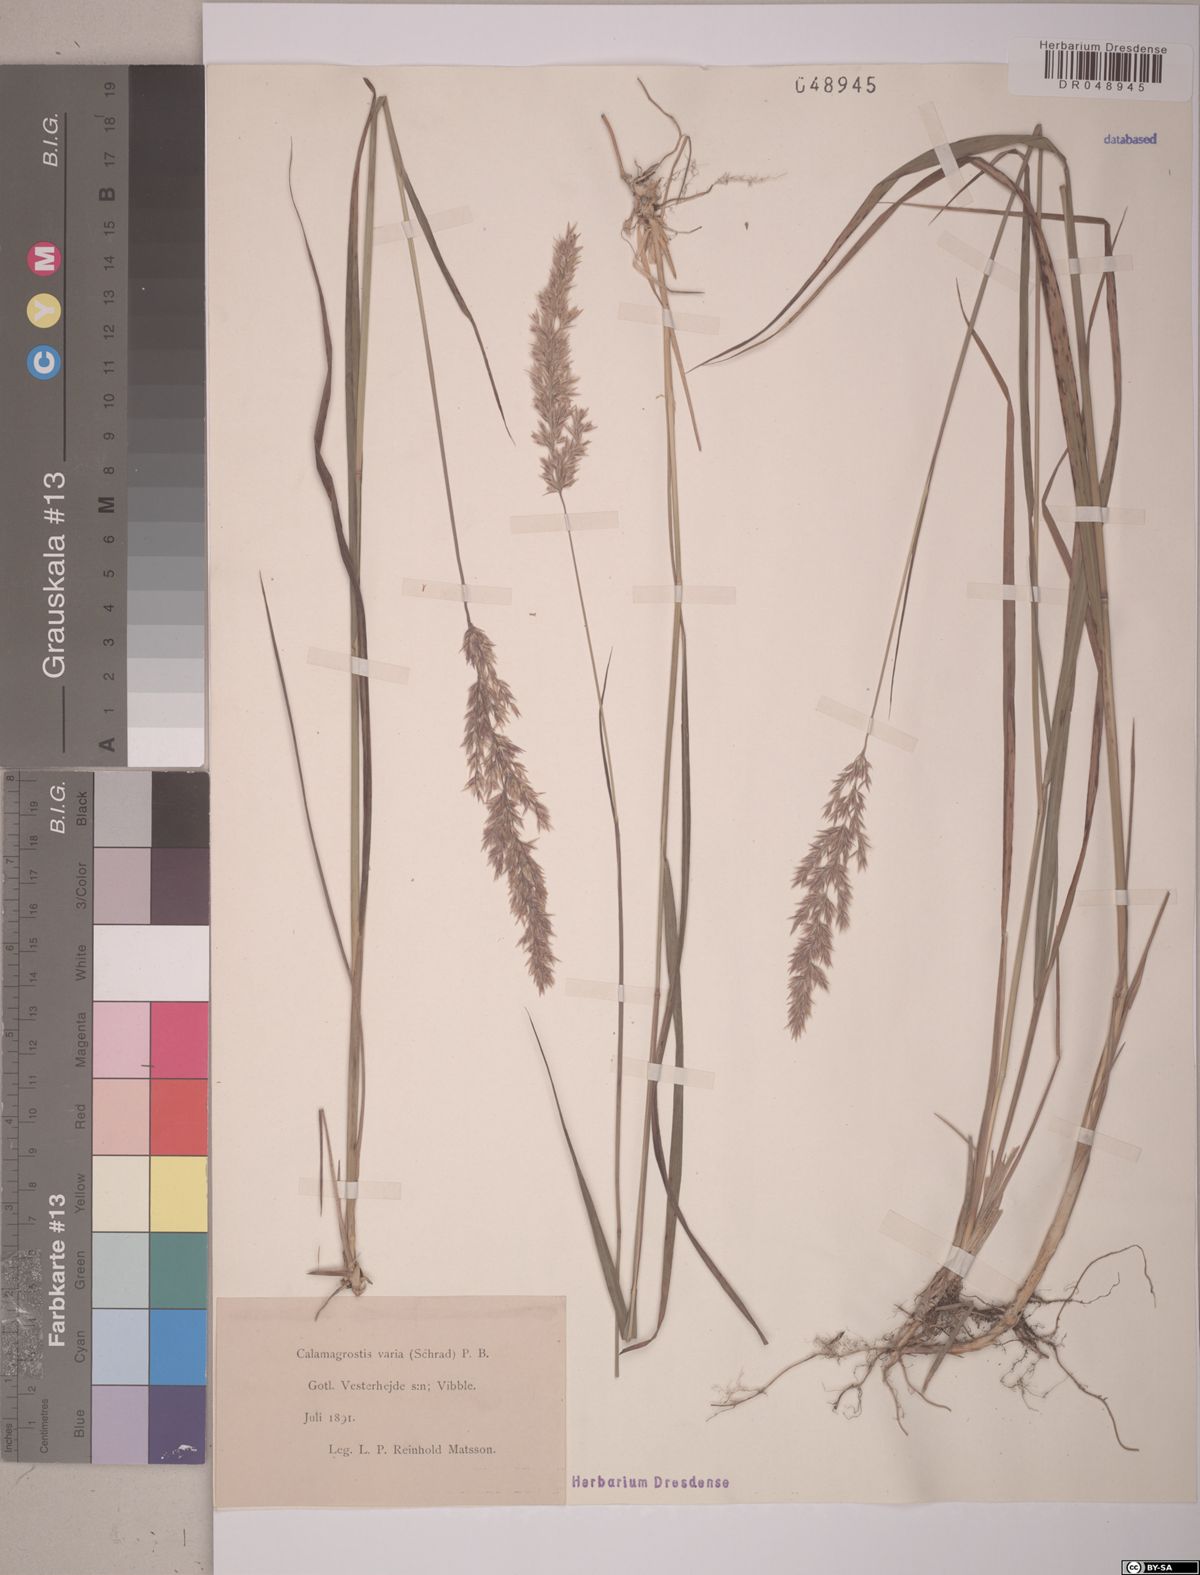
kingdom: Plantae
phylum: Tracheophyta
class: Liliopsida
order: Poales
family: Poaceae
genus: Calamagrostis
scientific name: Calamagrostis varia
